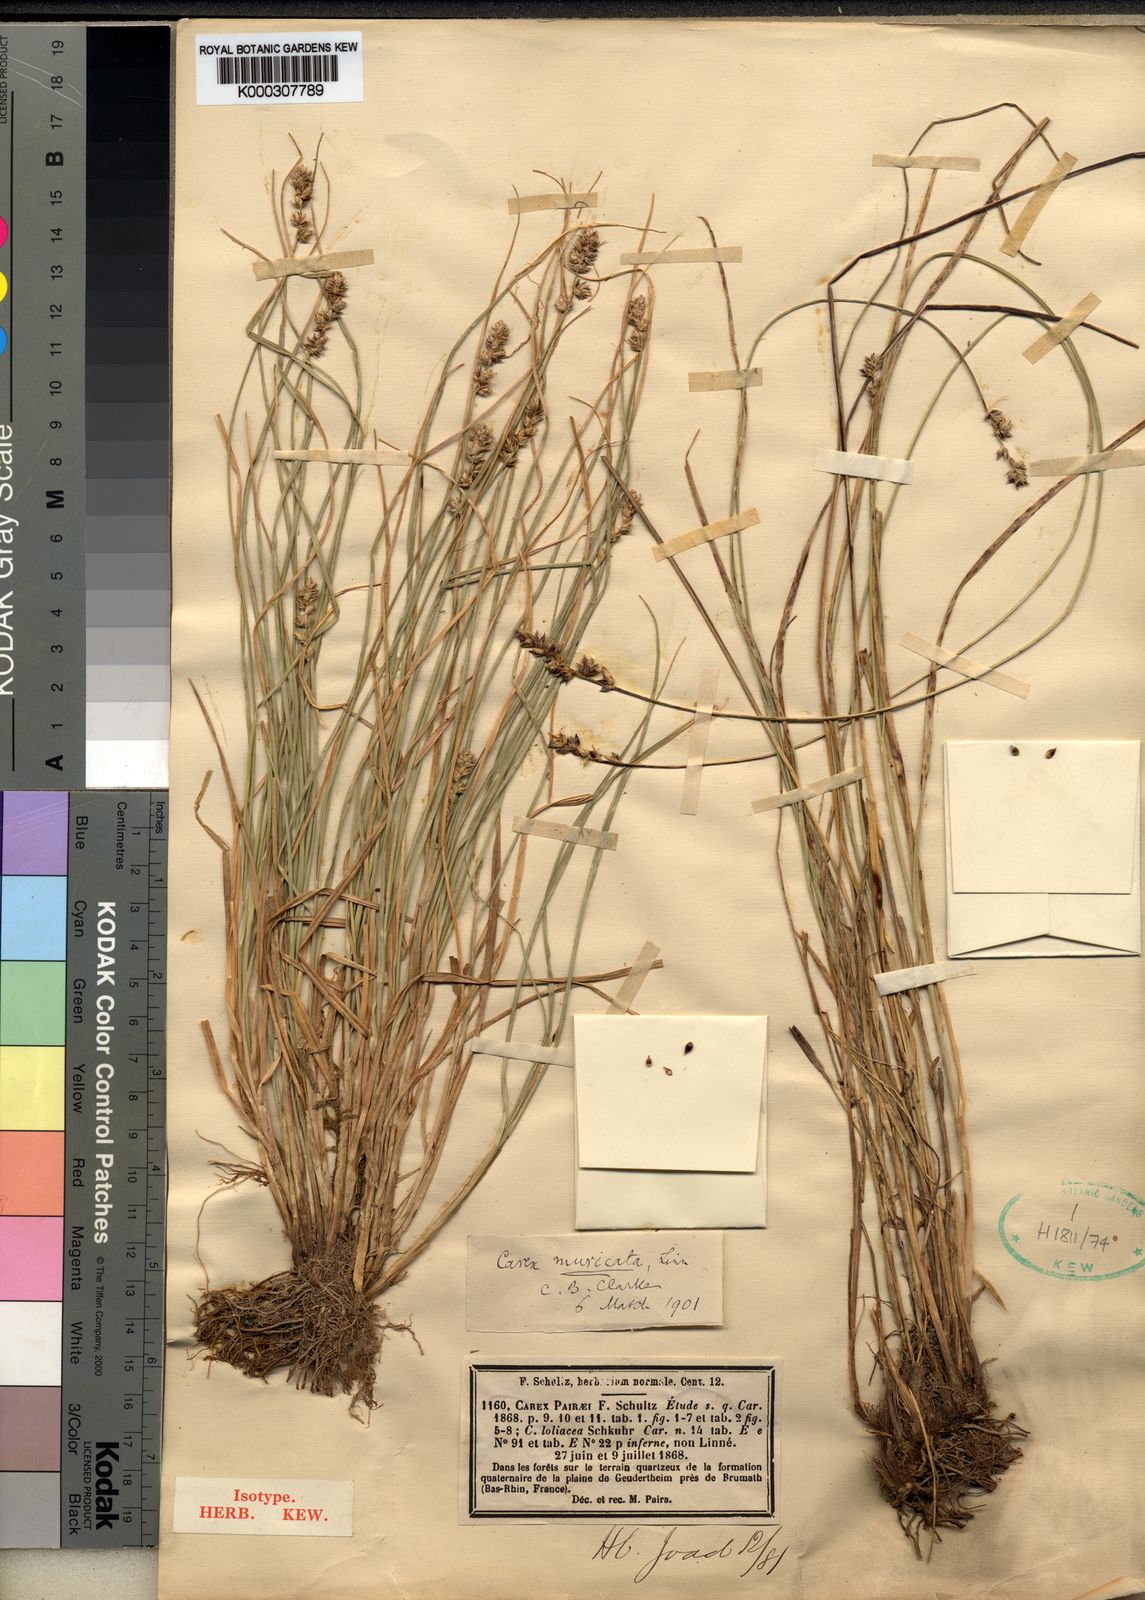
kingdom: Plantae
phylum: Tracheophyta
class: Liliopsida
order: Poales
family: Cyperaceae
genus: Carex
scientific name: Carex muricata
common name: Rough sedge
